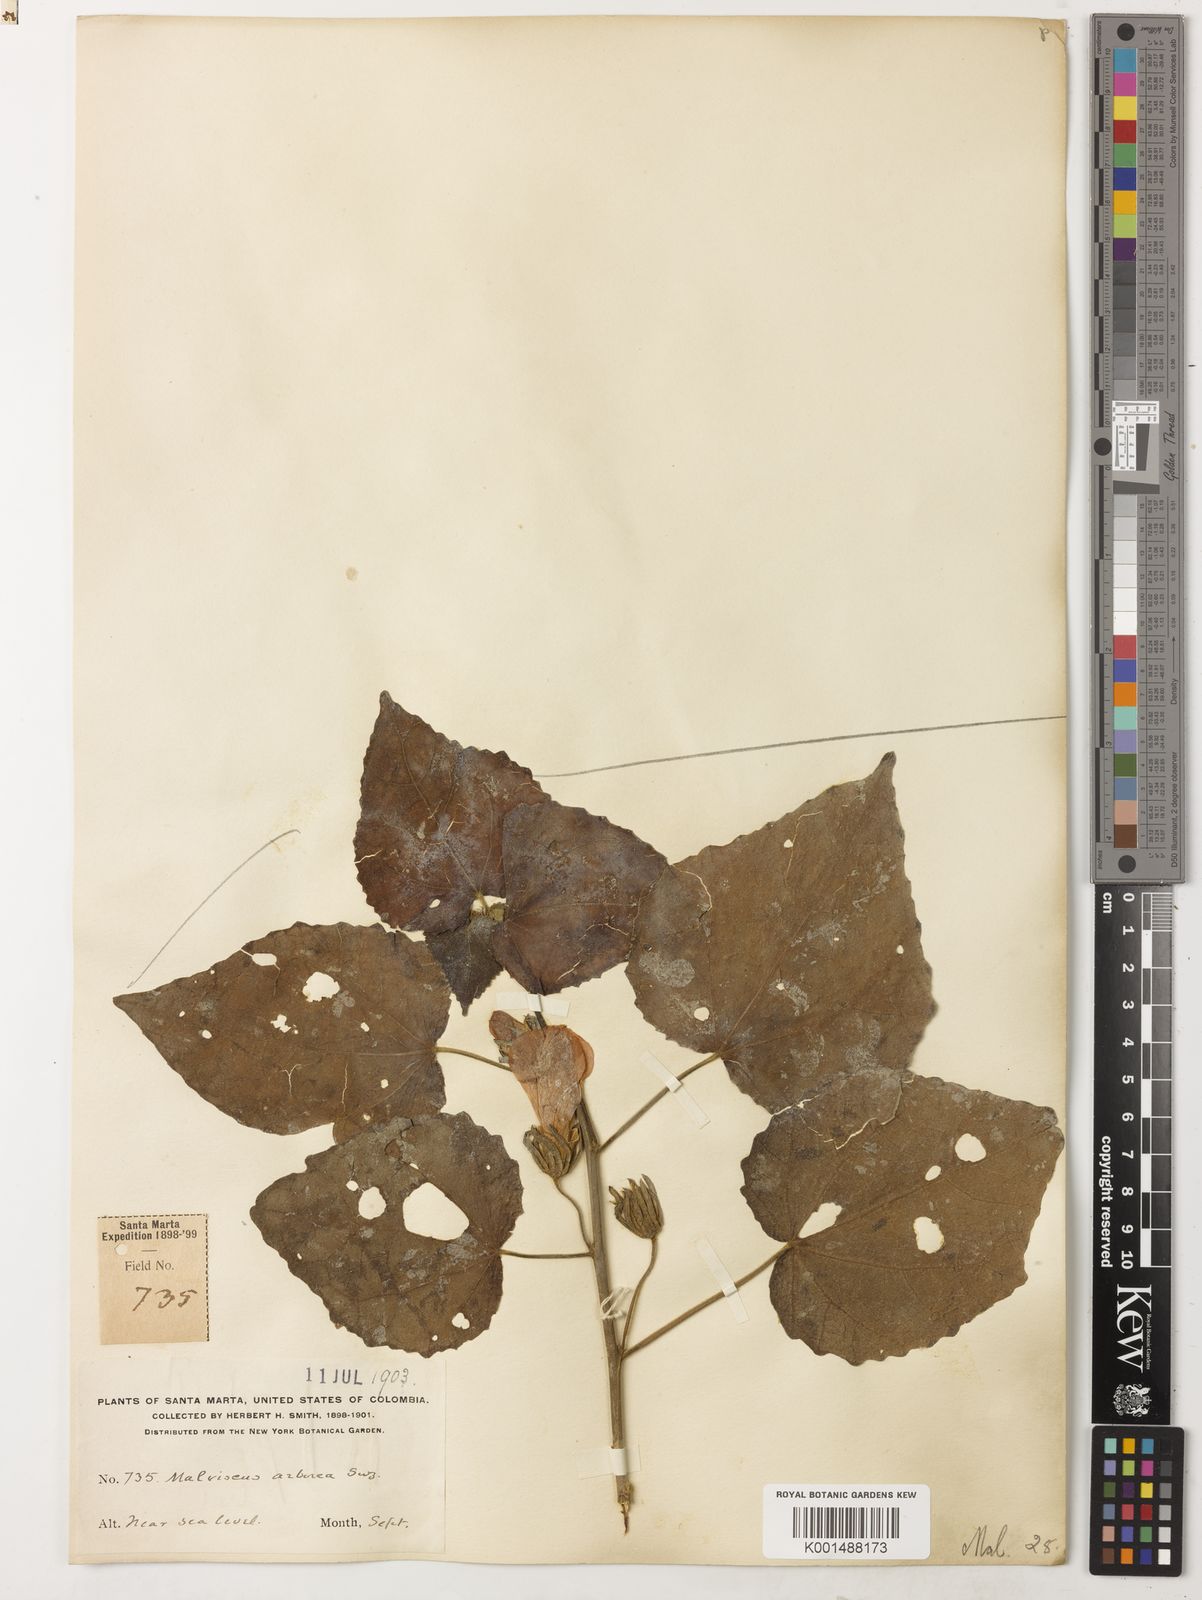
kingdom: Plantae
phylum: Tracheophyta
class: Magnoliopsida
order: Malvales
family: Malvaceae
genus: Malvaviscus
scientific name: Malvaviscus arboreus
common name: Wax mallow
